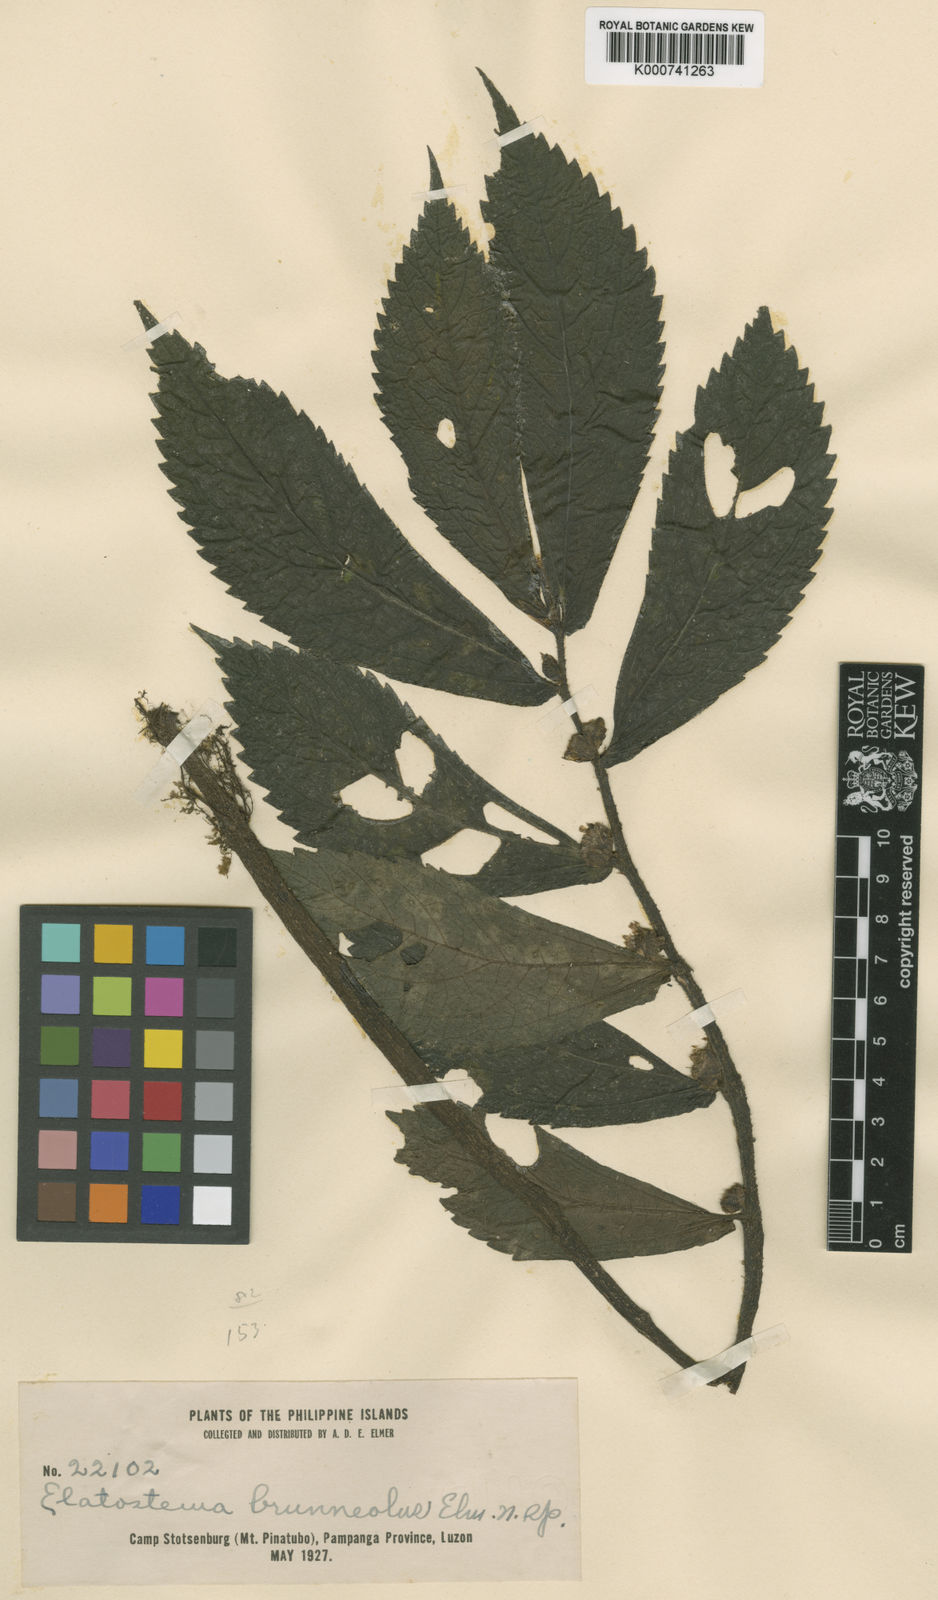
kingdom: Plantae
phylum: Tracheophyta
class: Magnoliopsida
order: Rosales
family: Urticaceae
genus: Elatostema
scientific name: Elatostema brunneolum
